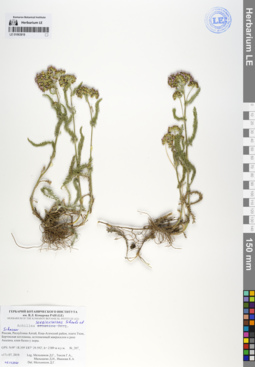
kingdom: Plantae
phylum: Tracheophyta
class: Magnoliopsida
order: Asterales
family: Asteraceae
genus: Achillea
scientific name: Achillea sergievskiana
